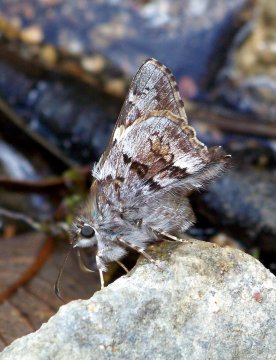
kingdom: Animalia
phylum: Arthropoda
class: Insecta
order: Lepidoptera
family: Hesperiidae
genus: Zestusa
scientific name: Zestusa dorus
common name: Short-tailed Skipper
